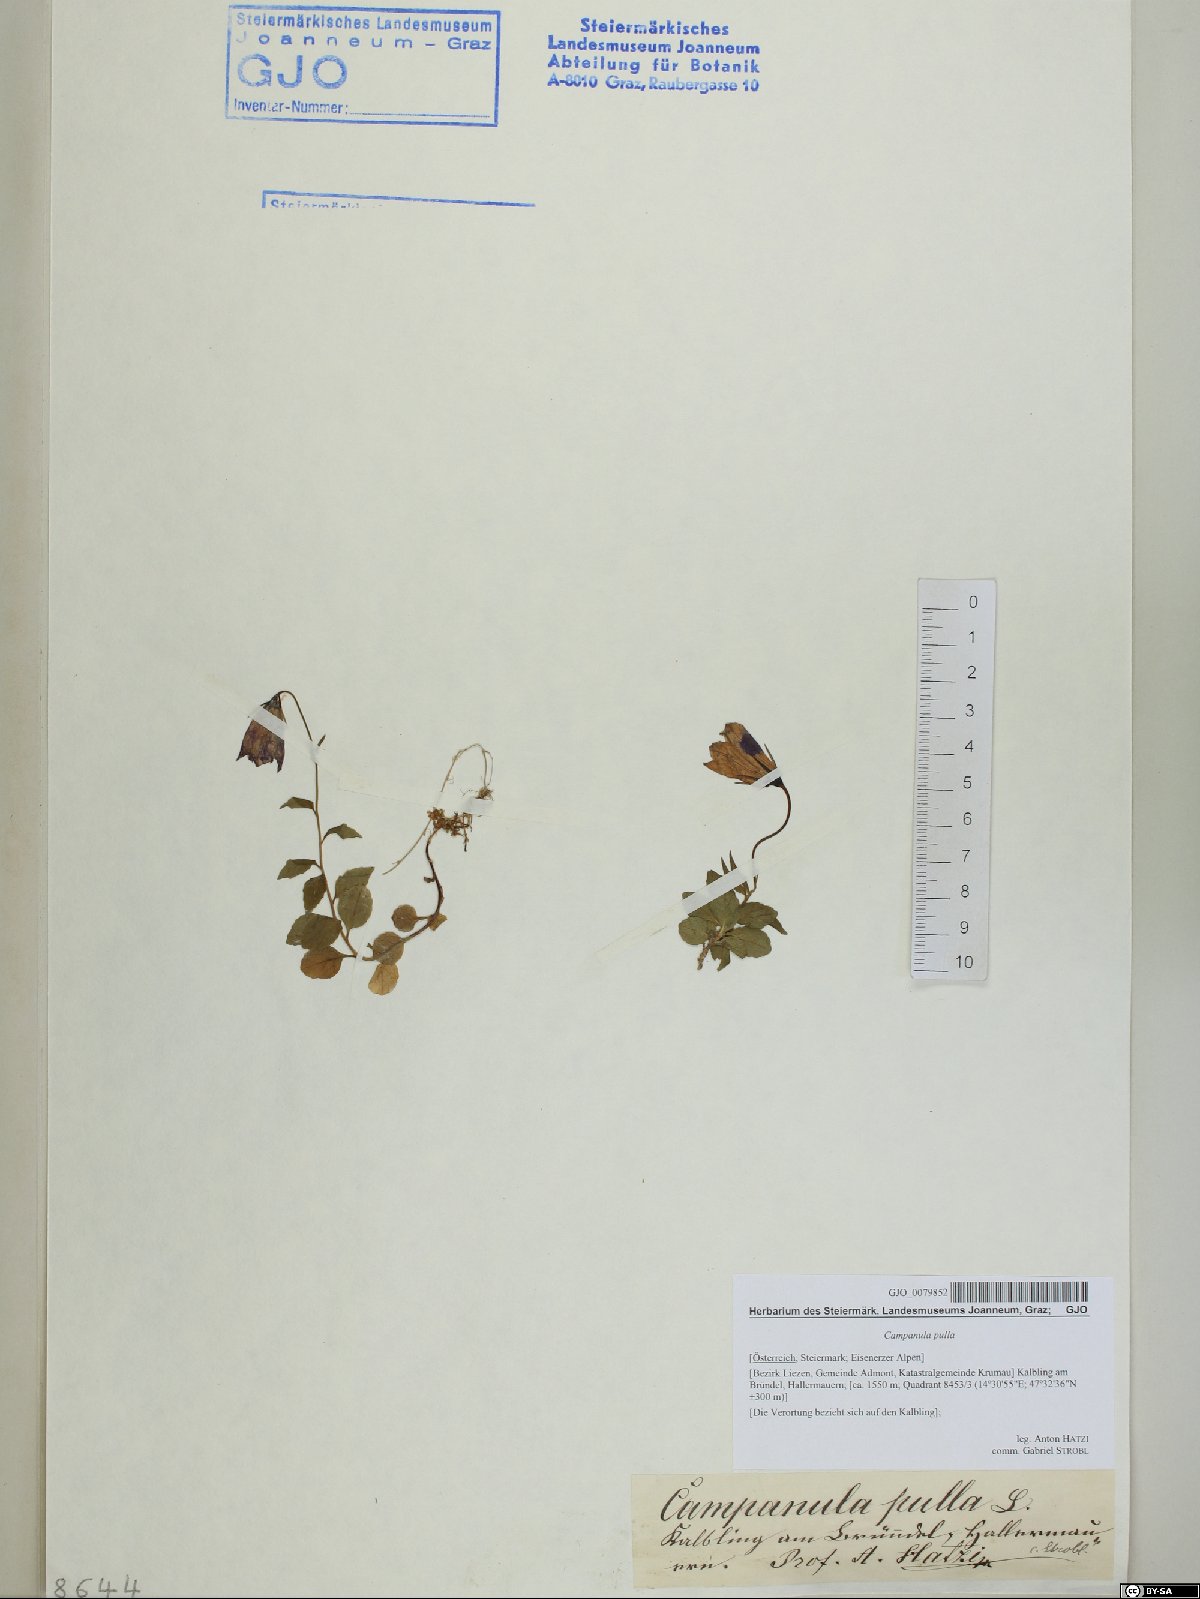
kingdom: Plantae
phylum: Tracheophyta
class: Magnoliopsida
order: Asterales
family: Campanulaceae
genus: Campanula
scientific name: Campanula pulla
